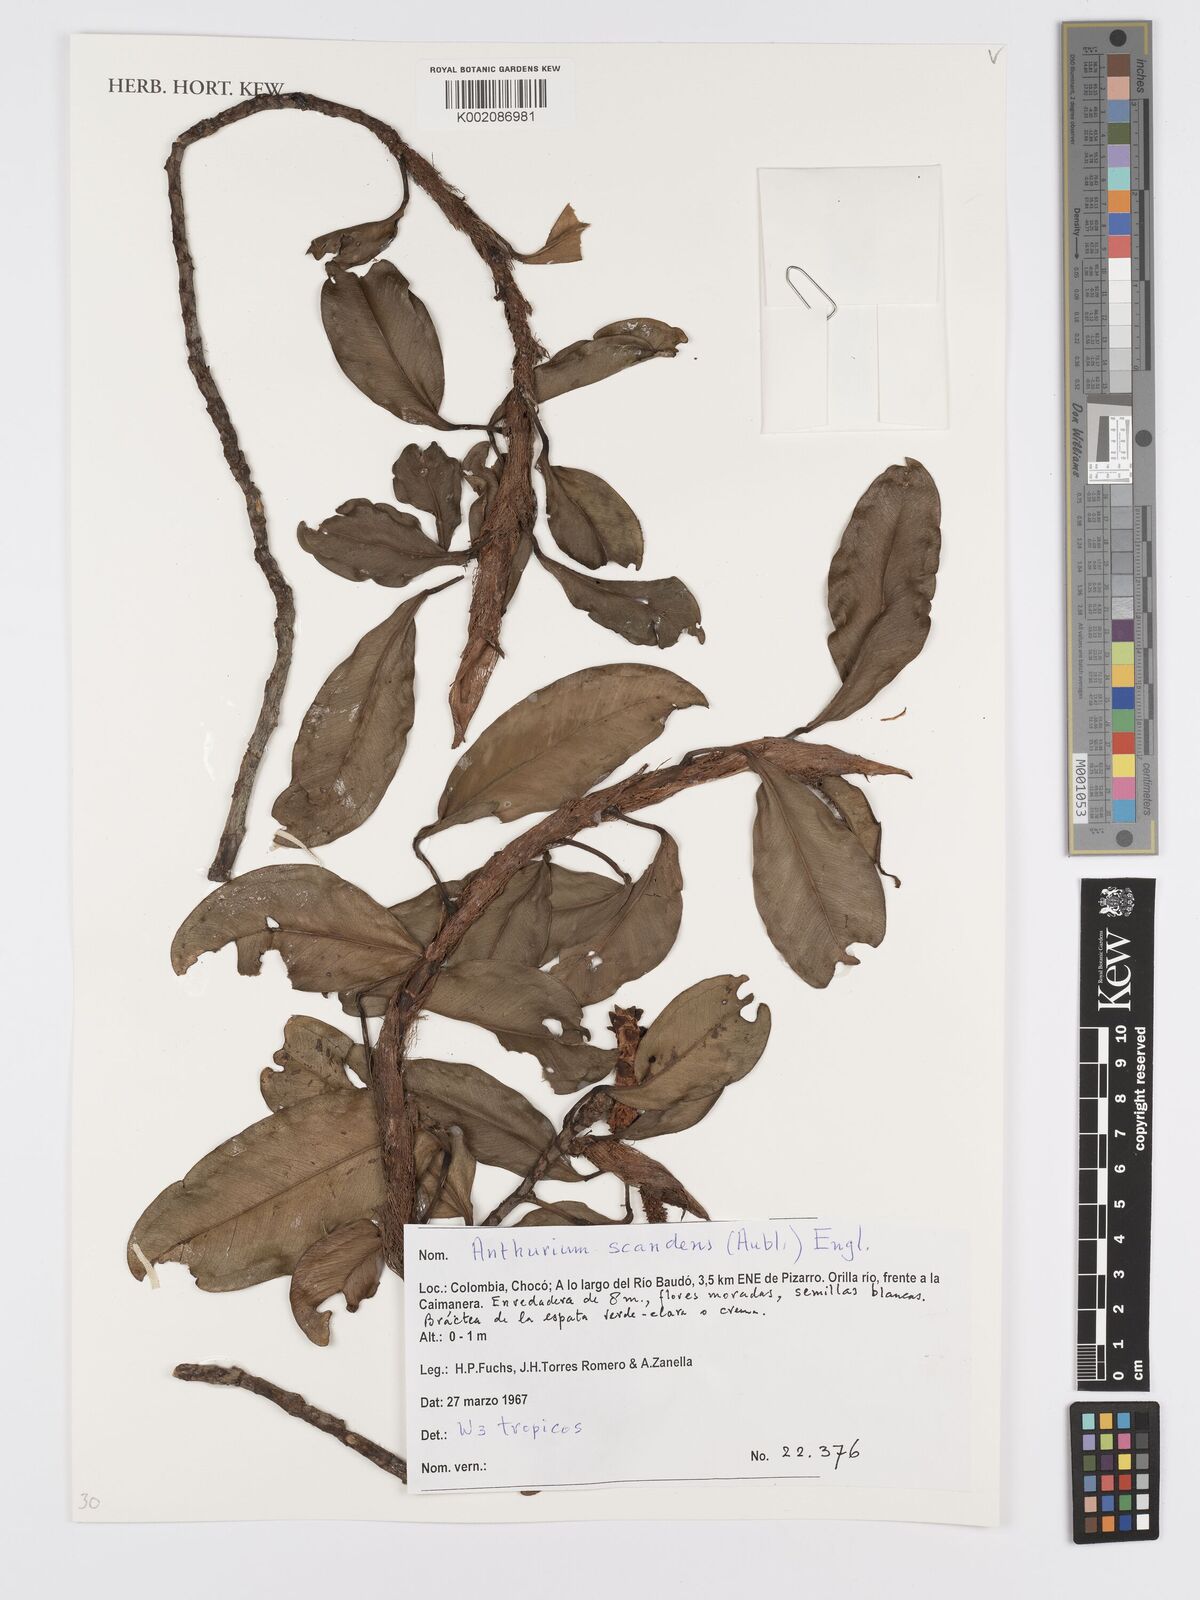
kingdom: Plantae
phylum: Tracheophyta
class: Liliopsida
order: Alismatales
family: Araceae
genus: Anthurium
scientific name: Anthurium scandens
